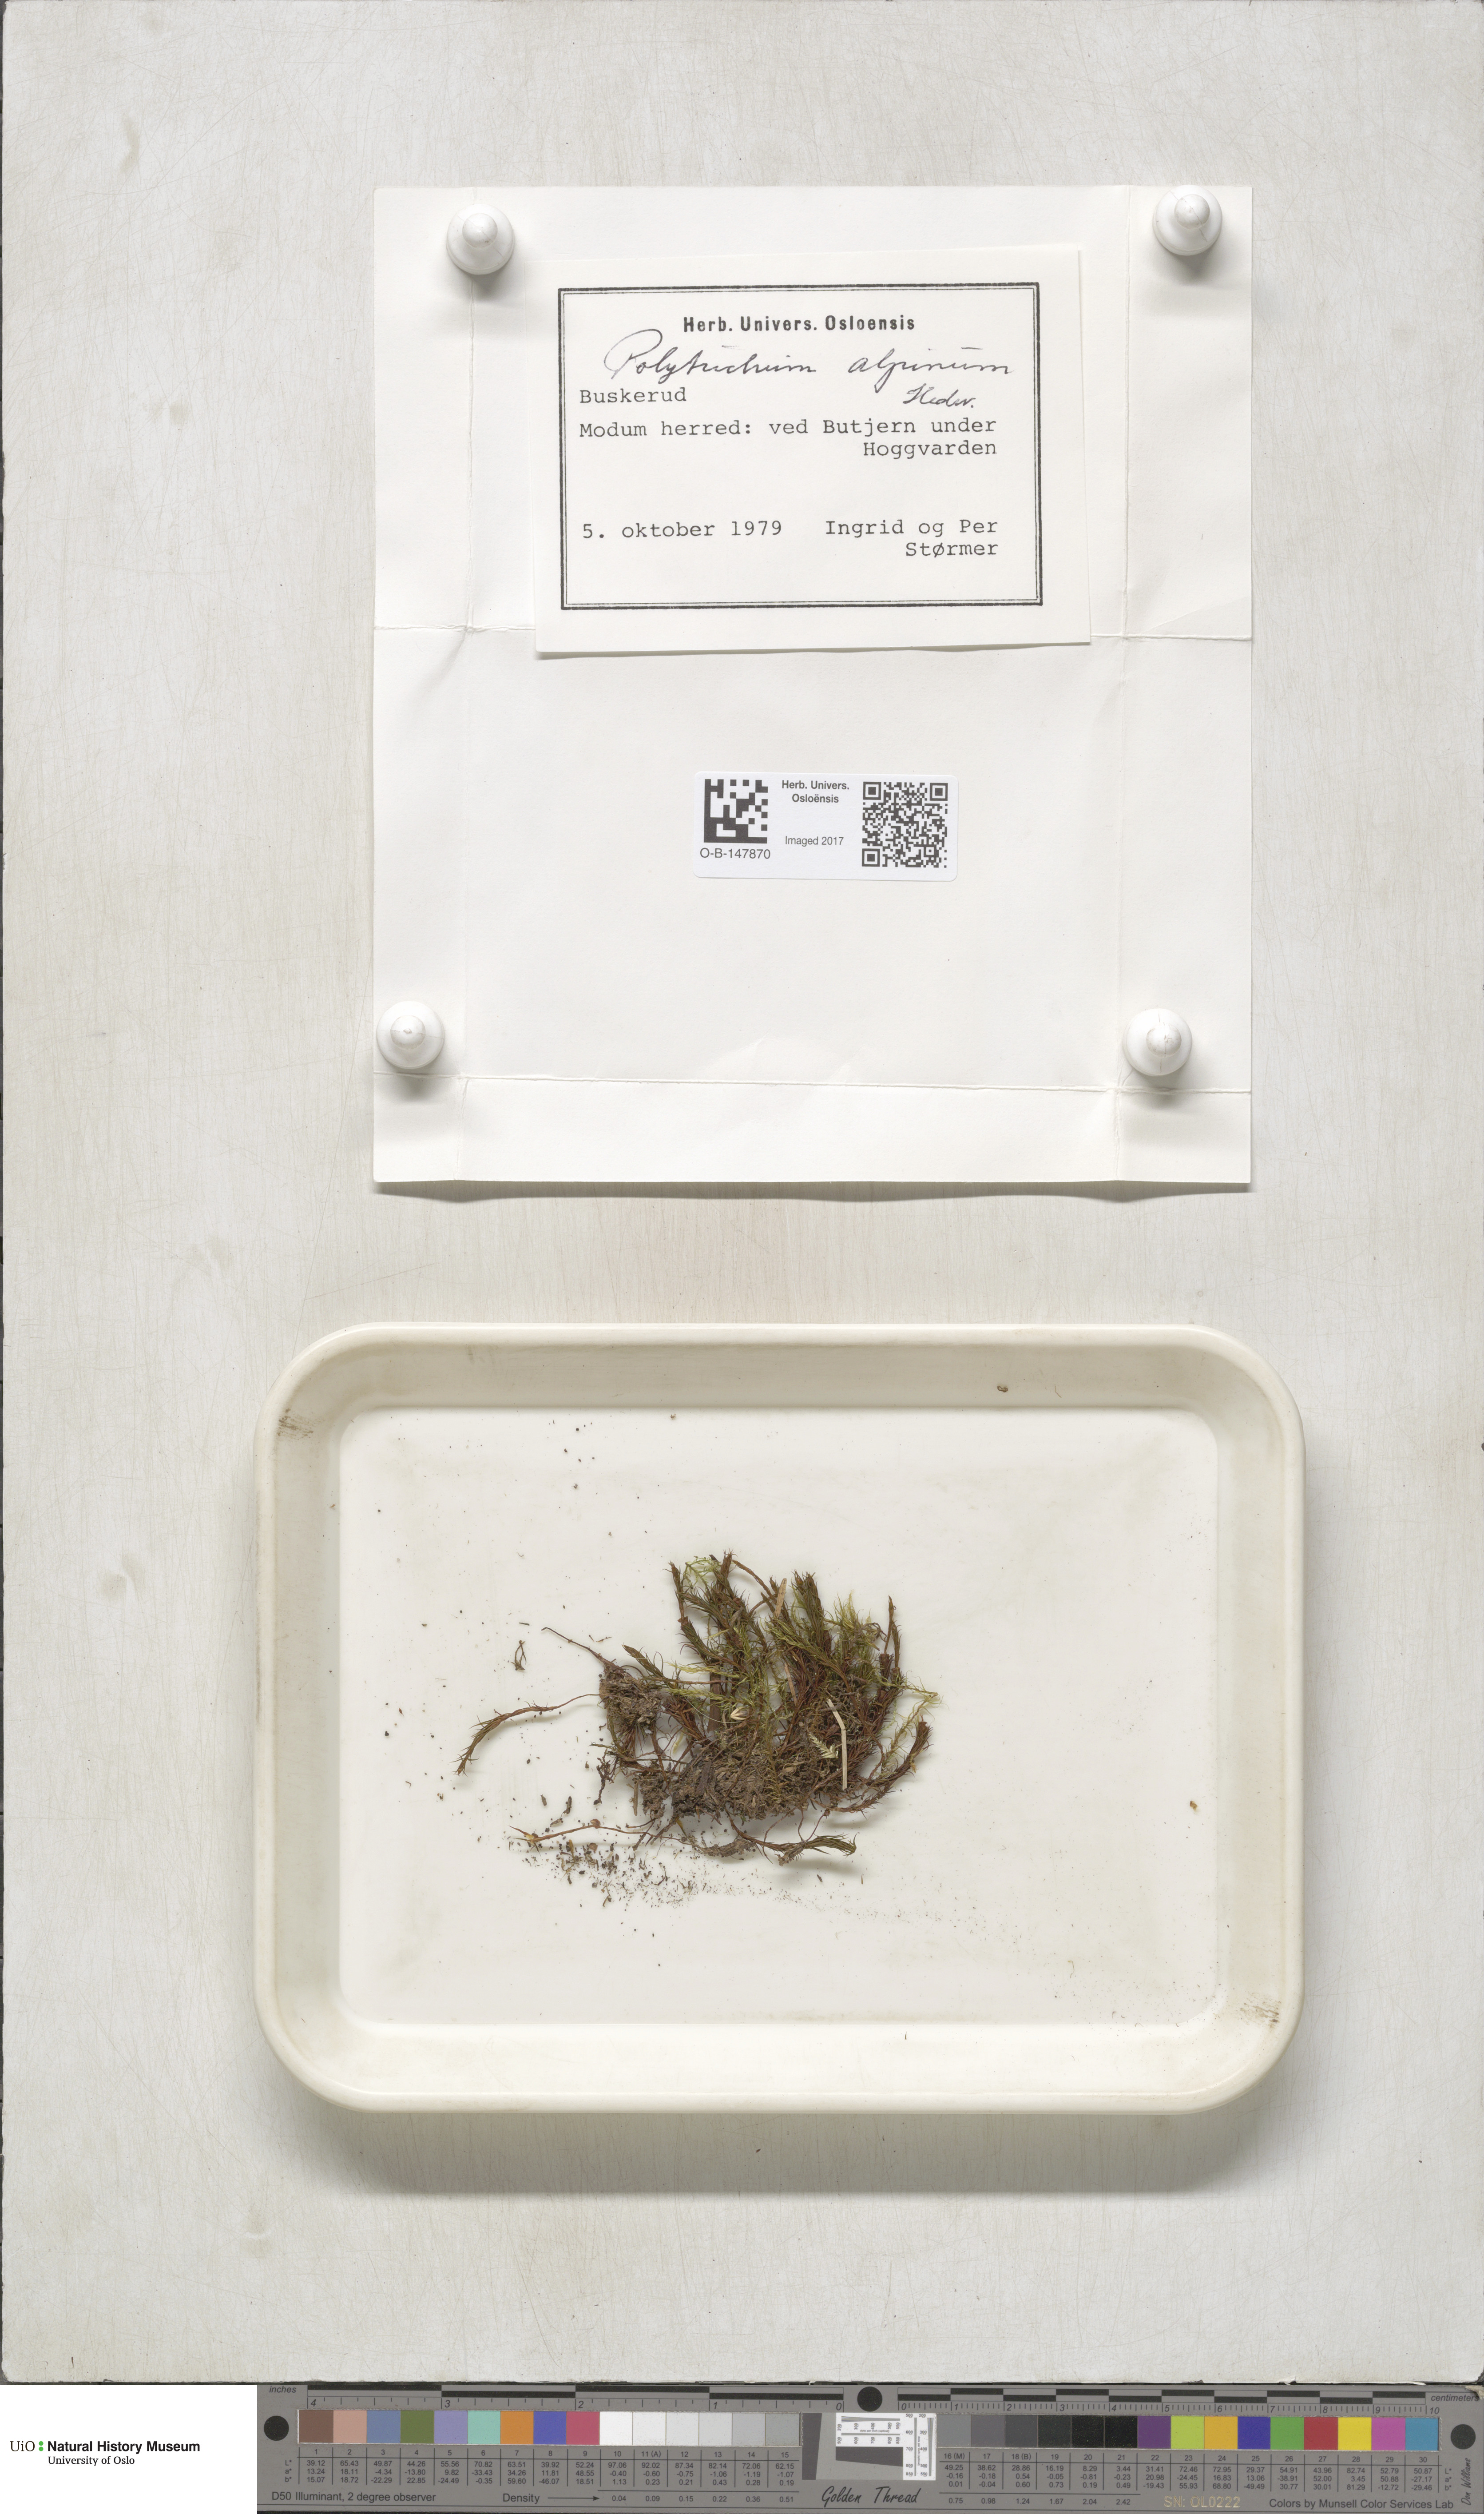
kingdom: Plantae
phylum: Bryophyta
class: Polytrichopsida
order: Polytrichales
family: Polytrichaceae
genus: Polytrichastrum
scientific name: Polytrichastrum alpinum
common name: Alpine haircap
